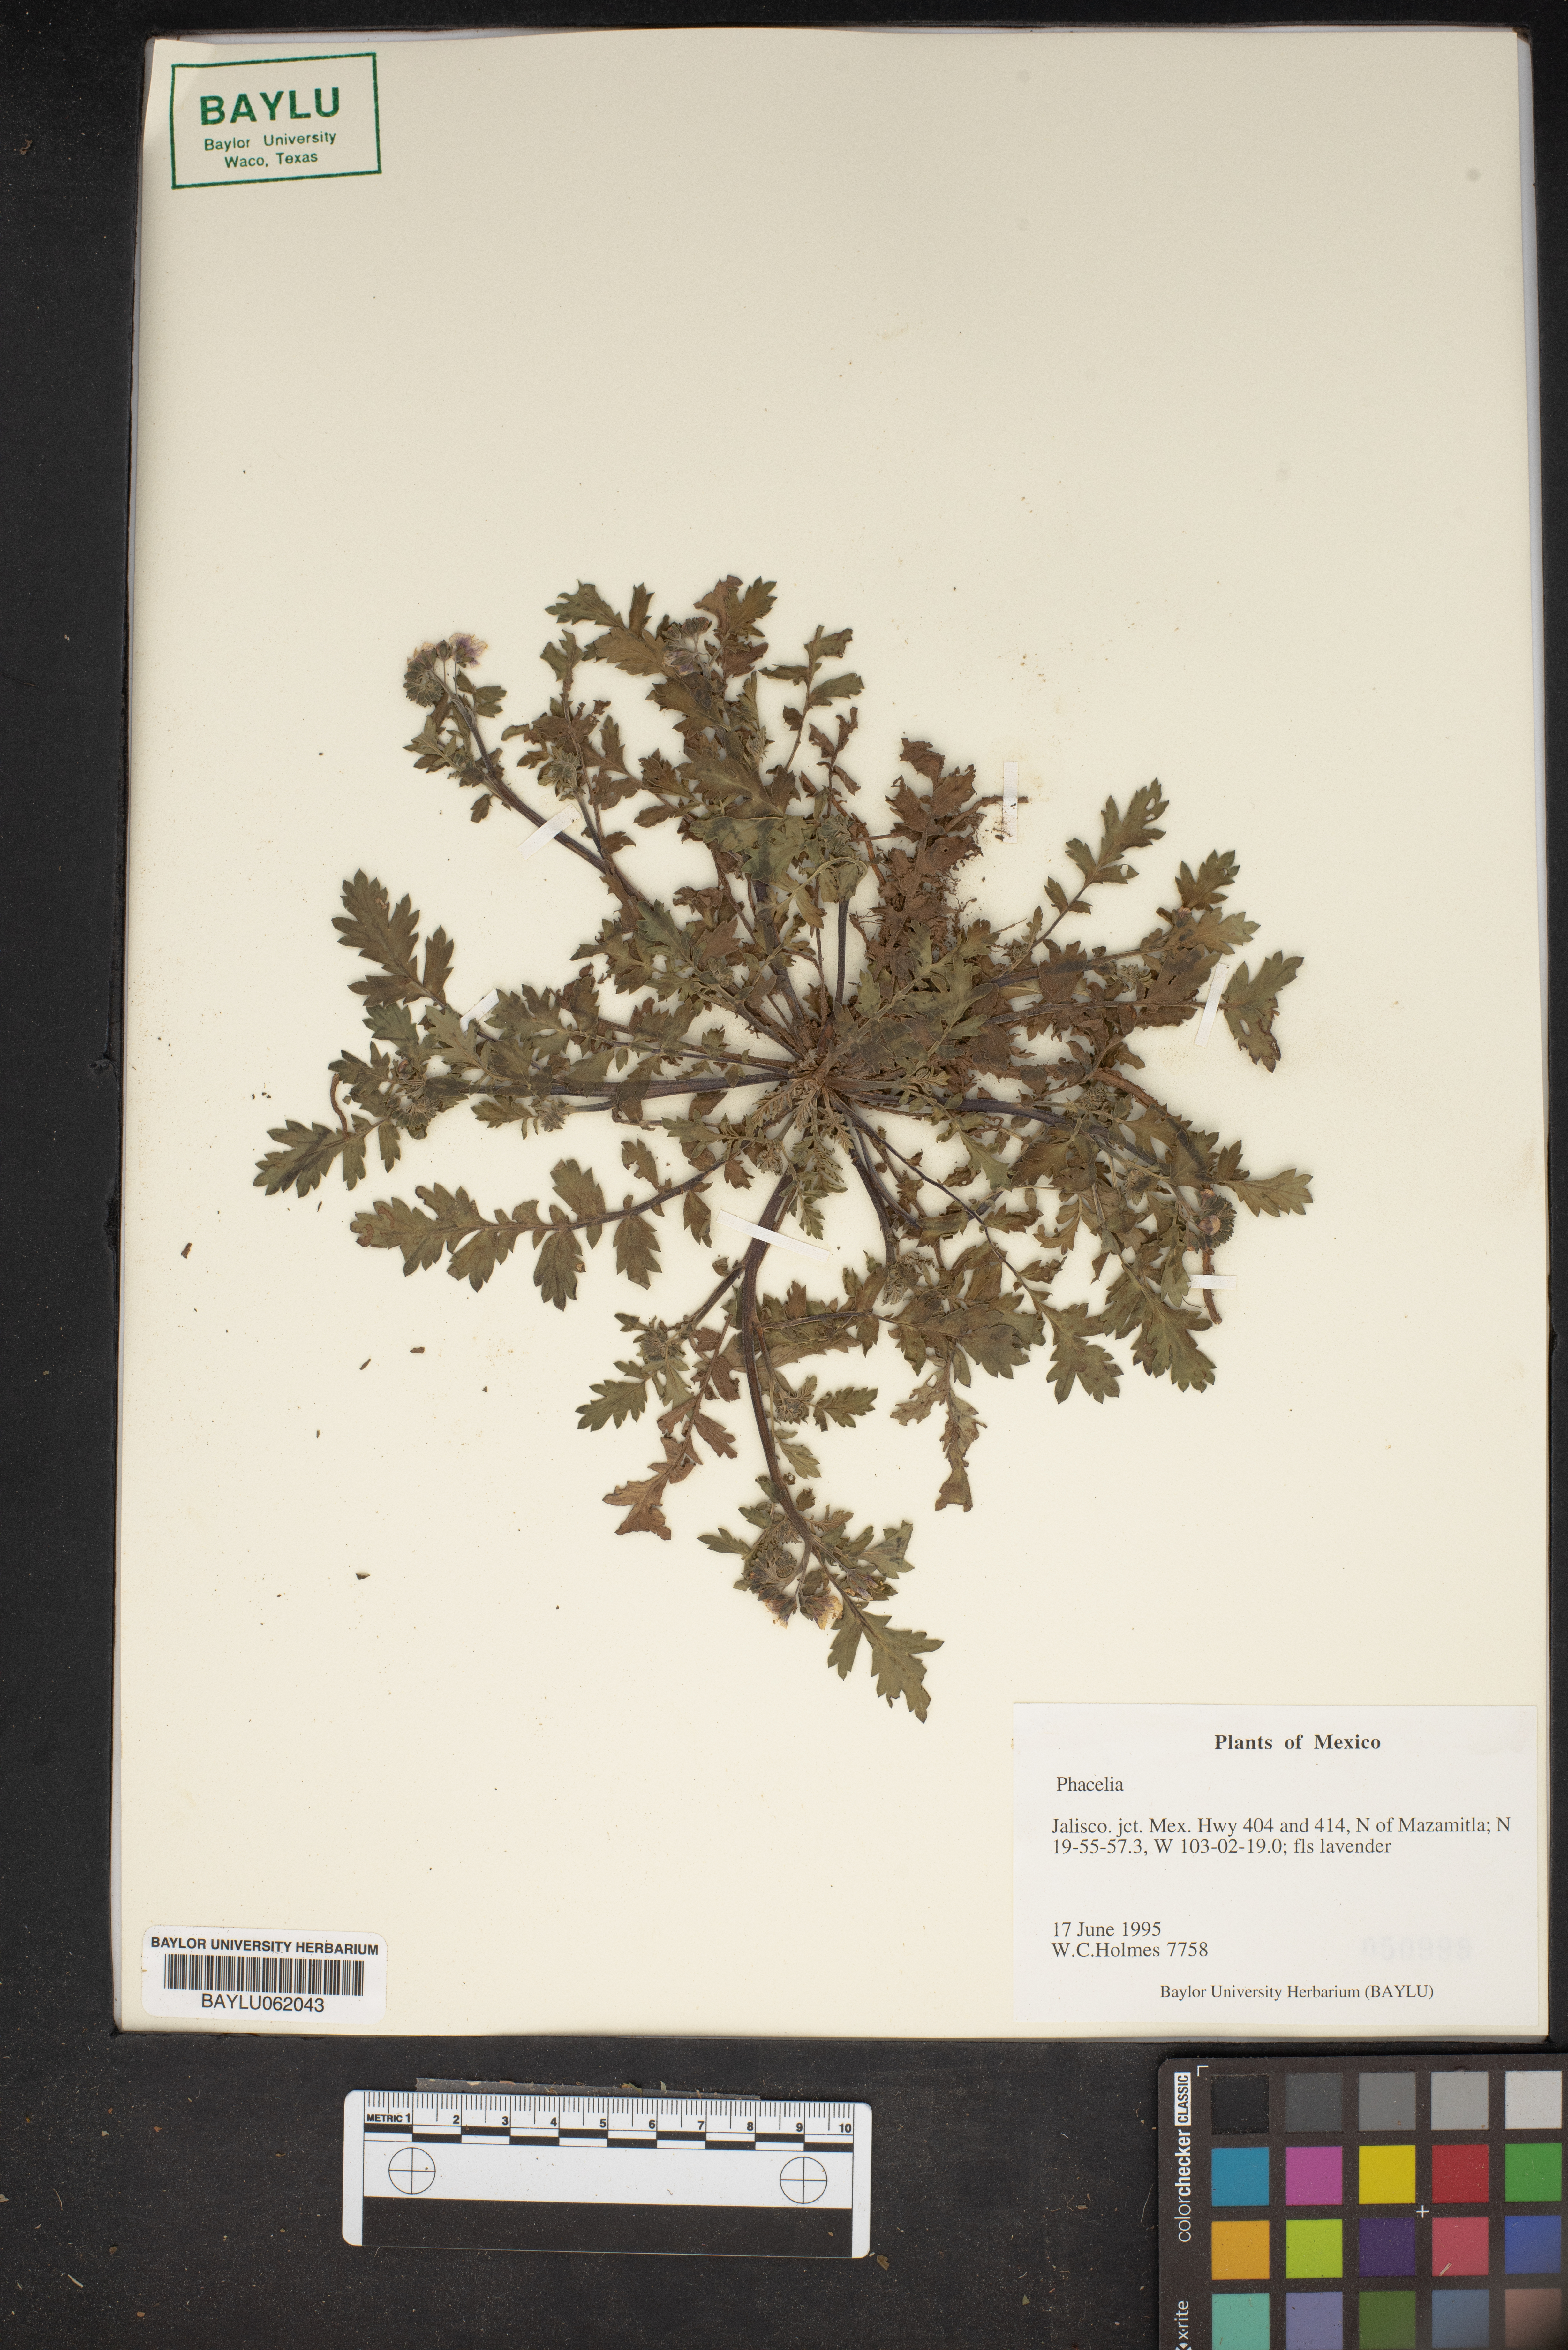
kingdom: Plantae
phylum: Tracheophyta
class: Magnoliopsida
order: Boraginales
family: Hydrophyllaceae
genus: Phacelia
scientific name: Phacelia
